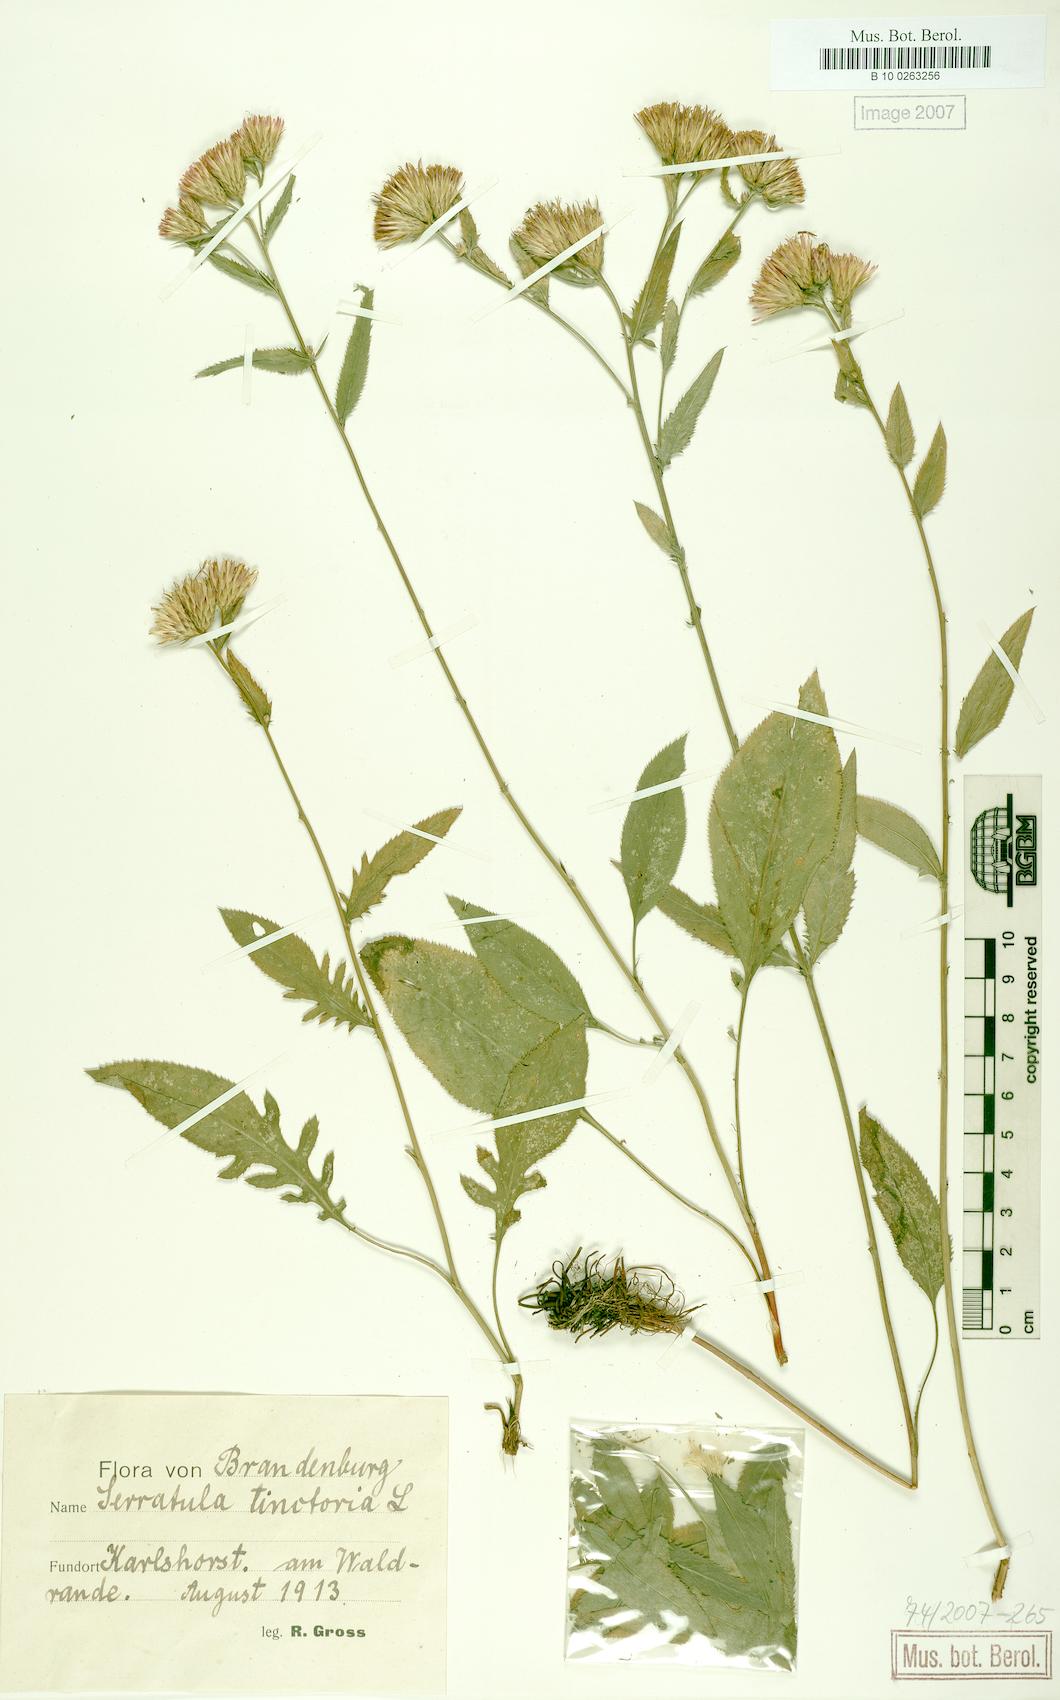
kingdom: Plantae
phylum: Tracheophyta
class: Magnoliopsida
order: Asterales
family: Asteraceae
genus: Serratula
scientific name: Serratula tinctoria
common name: Saw-wort
